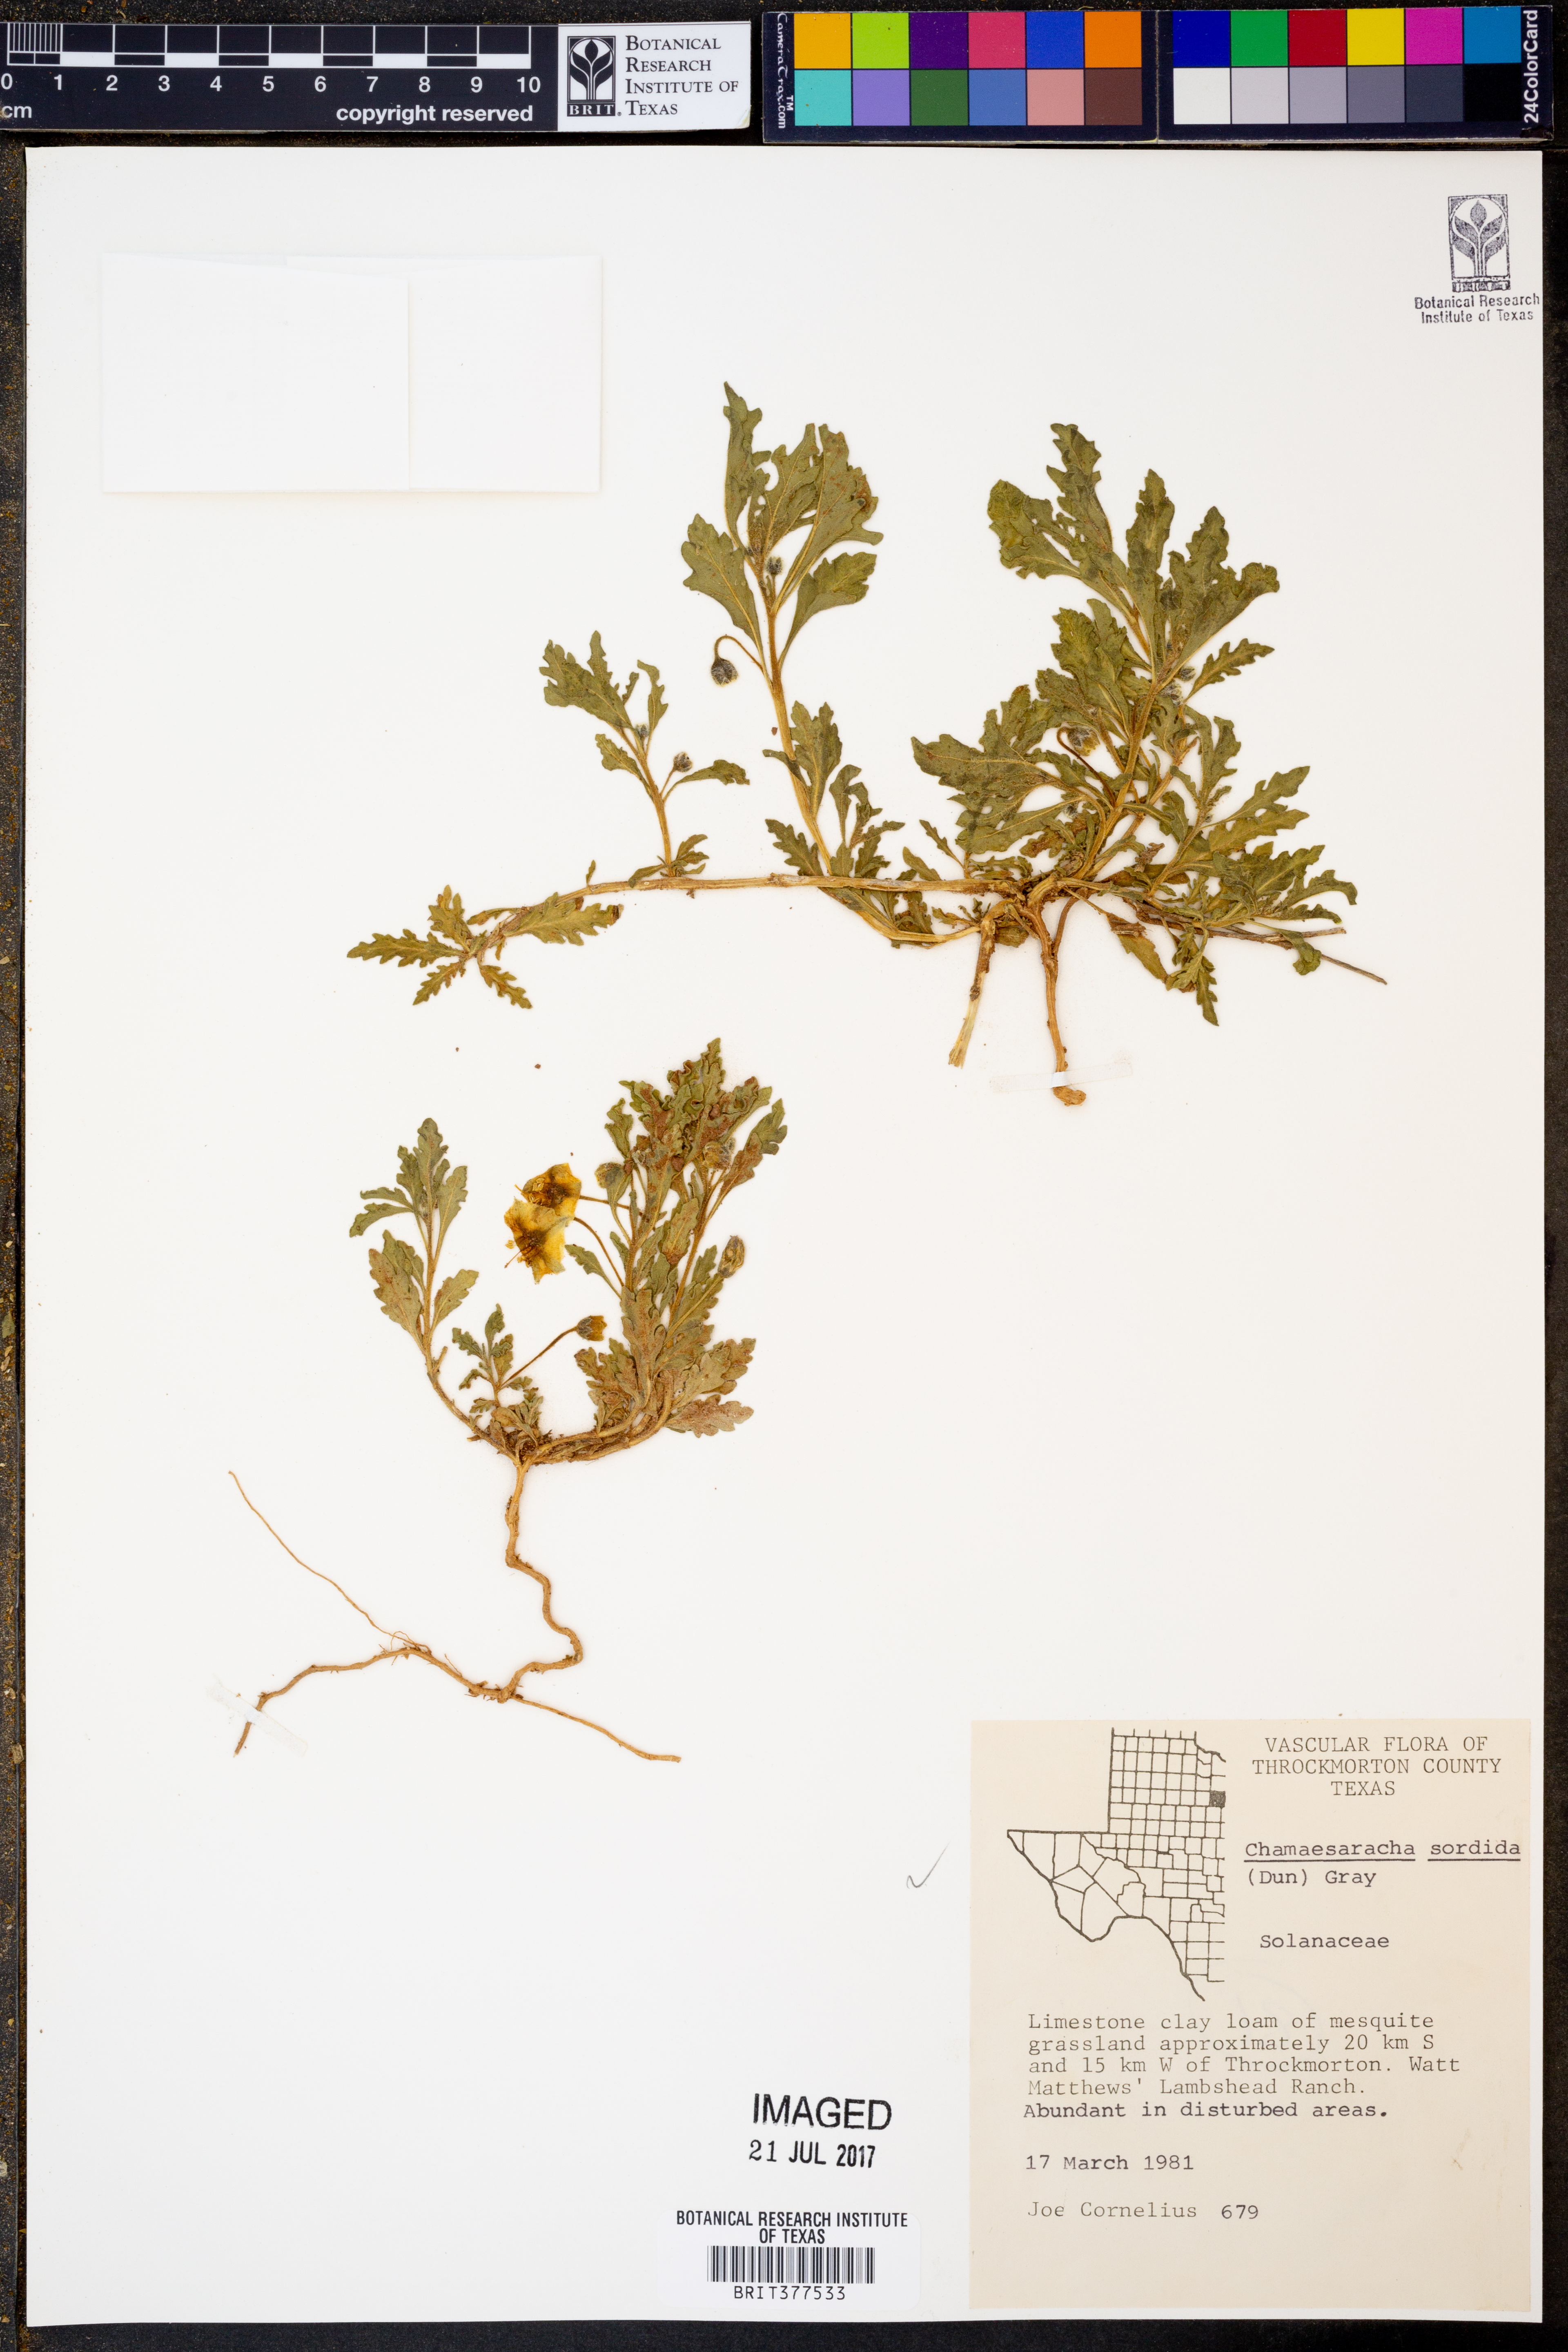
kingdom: Plantae
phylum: Tracheophyta
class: Magnoliopsida
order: Solanales
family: Solanaceae
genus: Chamaesaracha
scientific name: Chamaesaracha sordida
